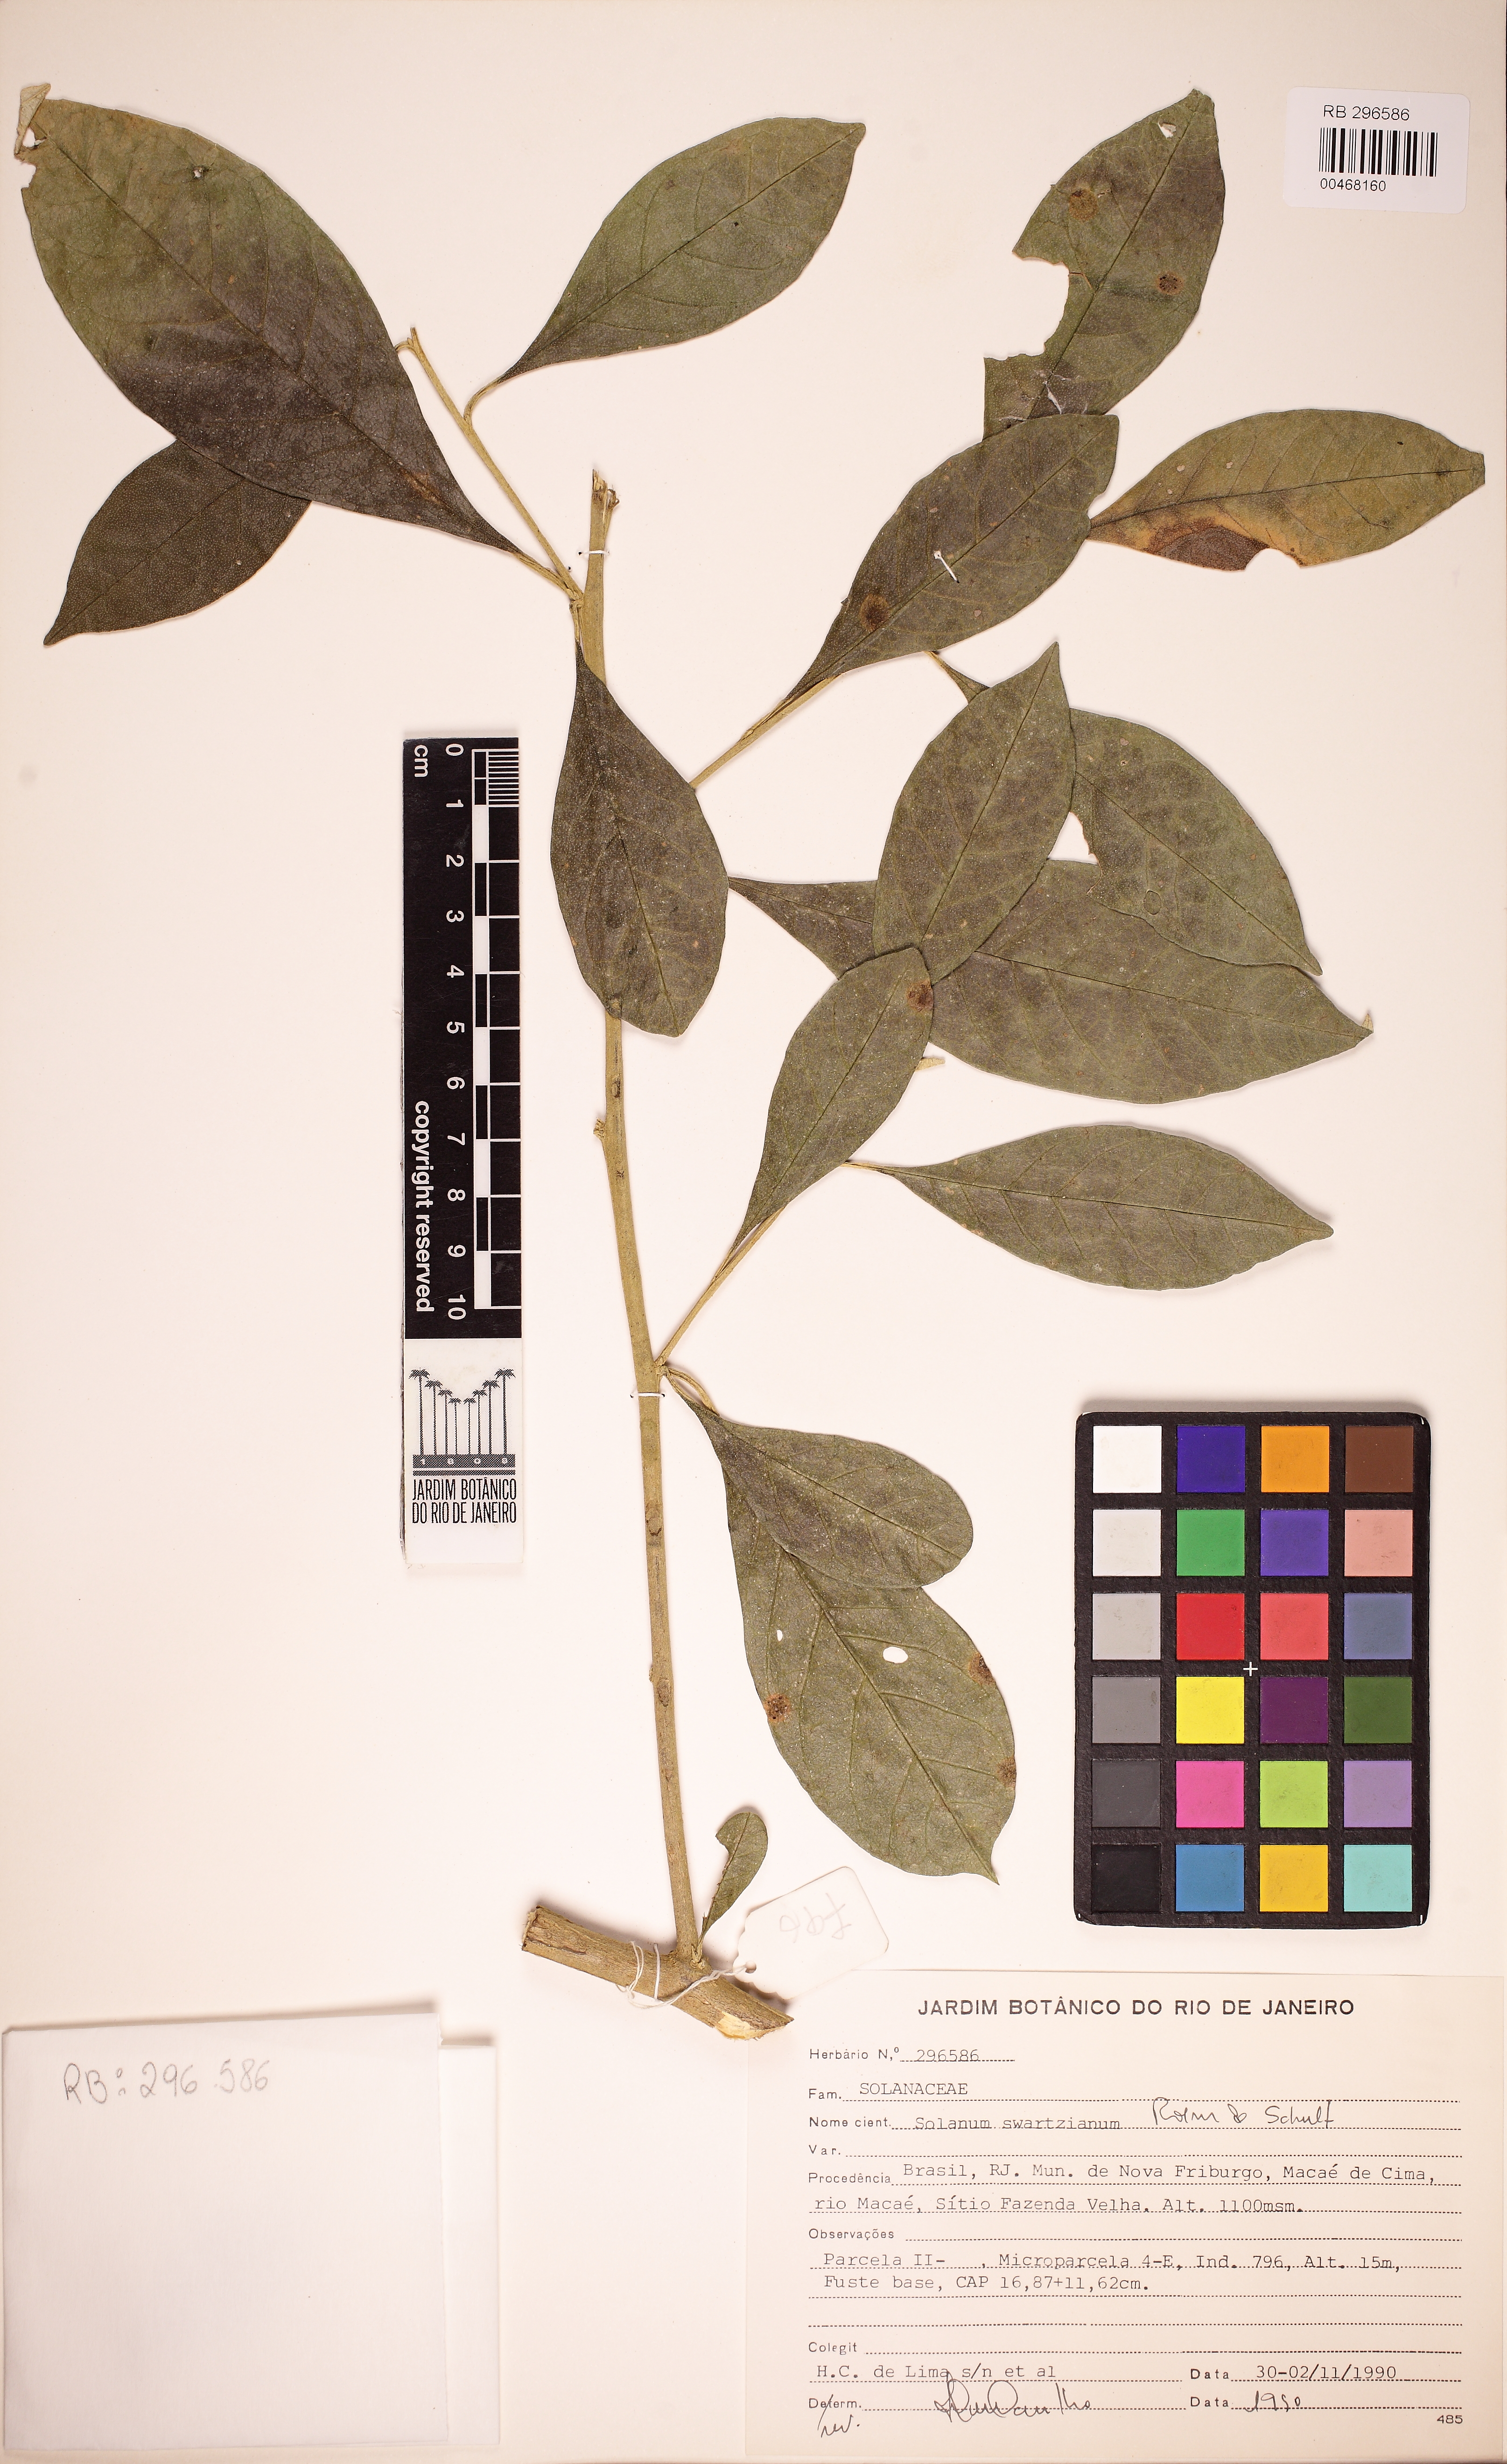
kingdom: Plantae
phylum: Tracheophyta
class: Magnoliopsida
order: Solanales
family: Solanaceae
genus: Solanum
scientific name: Solanum swartzianum
